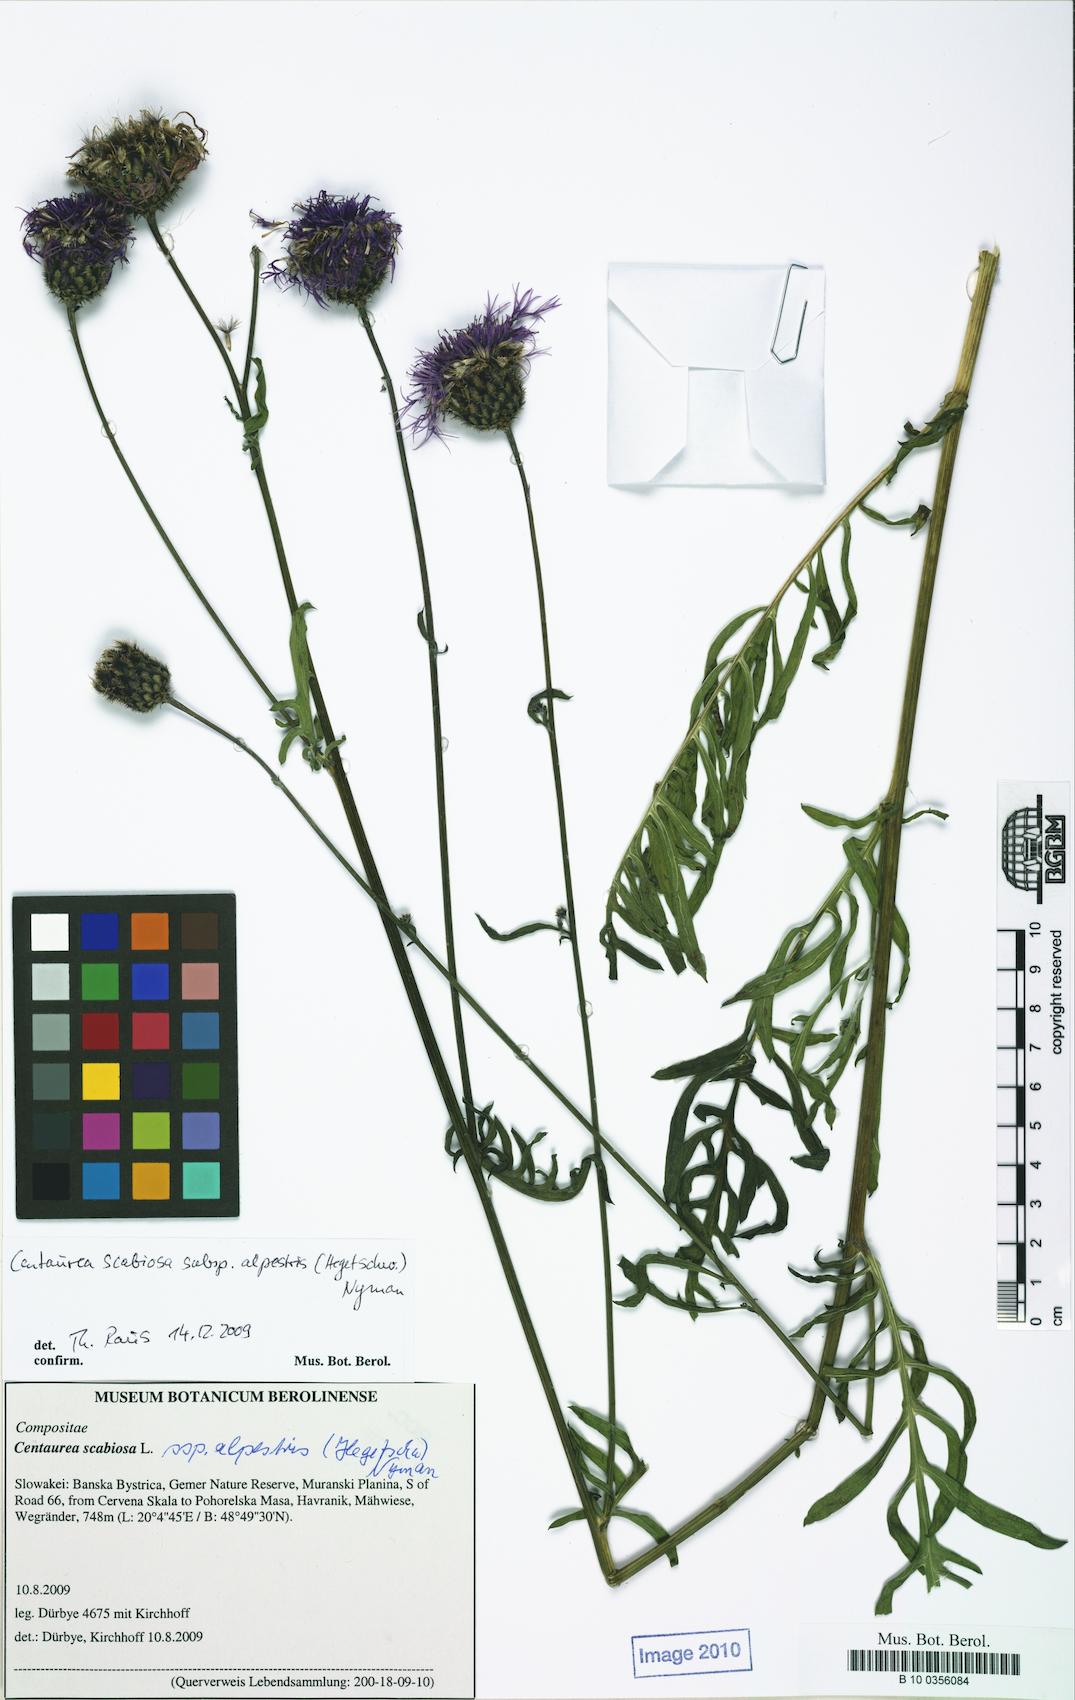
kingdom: Plantae
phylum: Tracheophyta
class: Magnoliopsida
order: Asterales
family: Asteraceae
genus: Centaurea
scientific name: Centaurea scabiosa
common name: Greater knapweed
